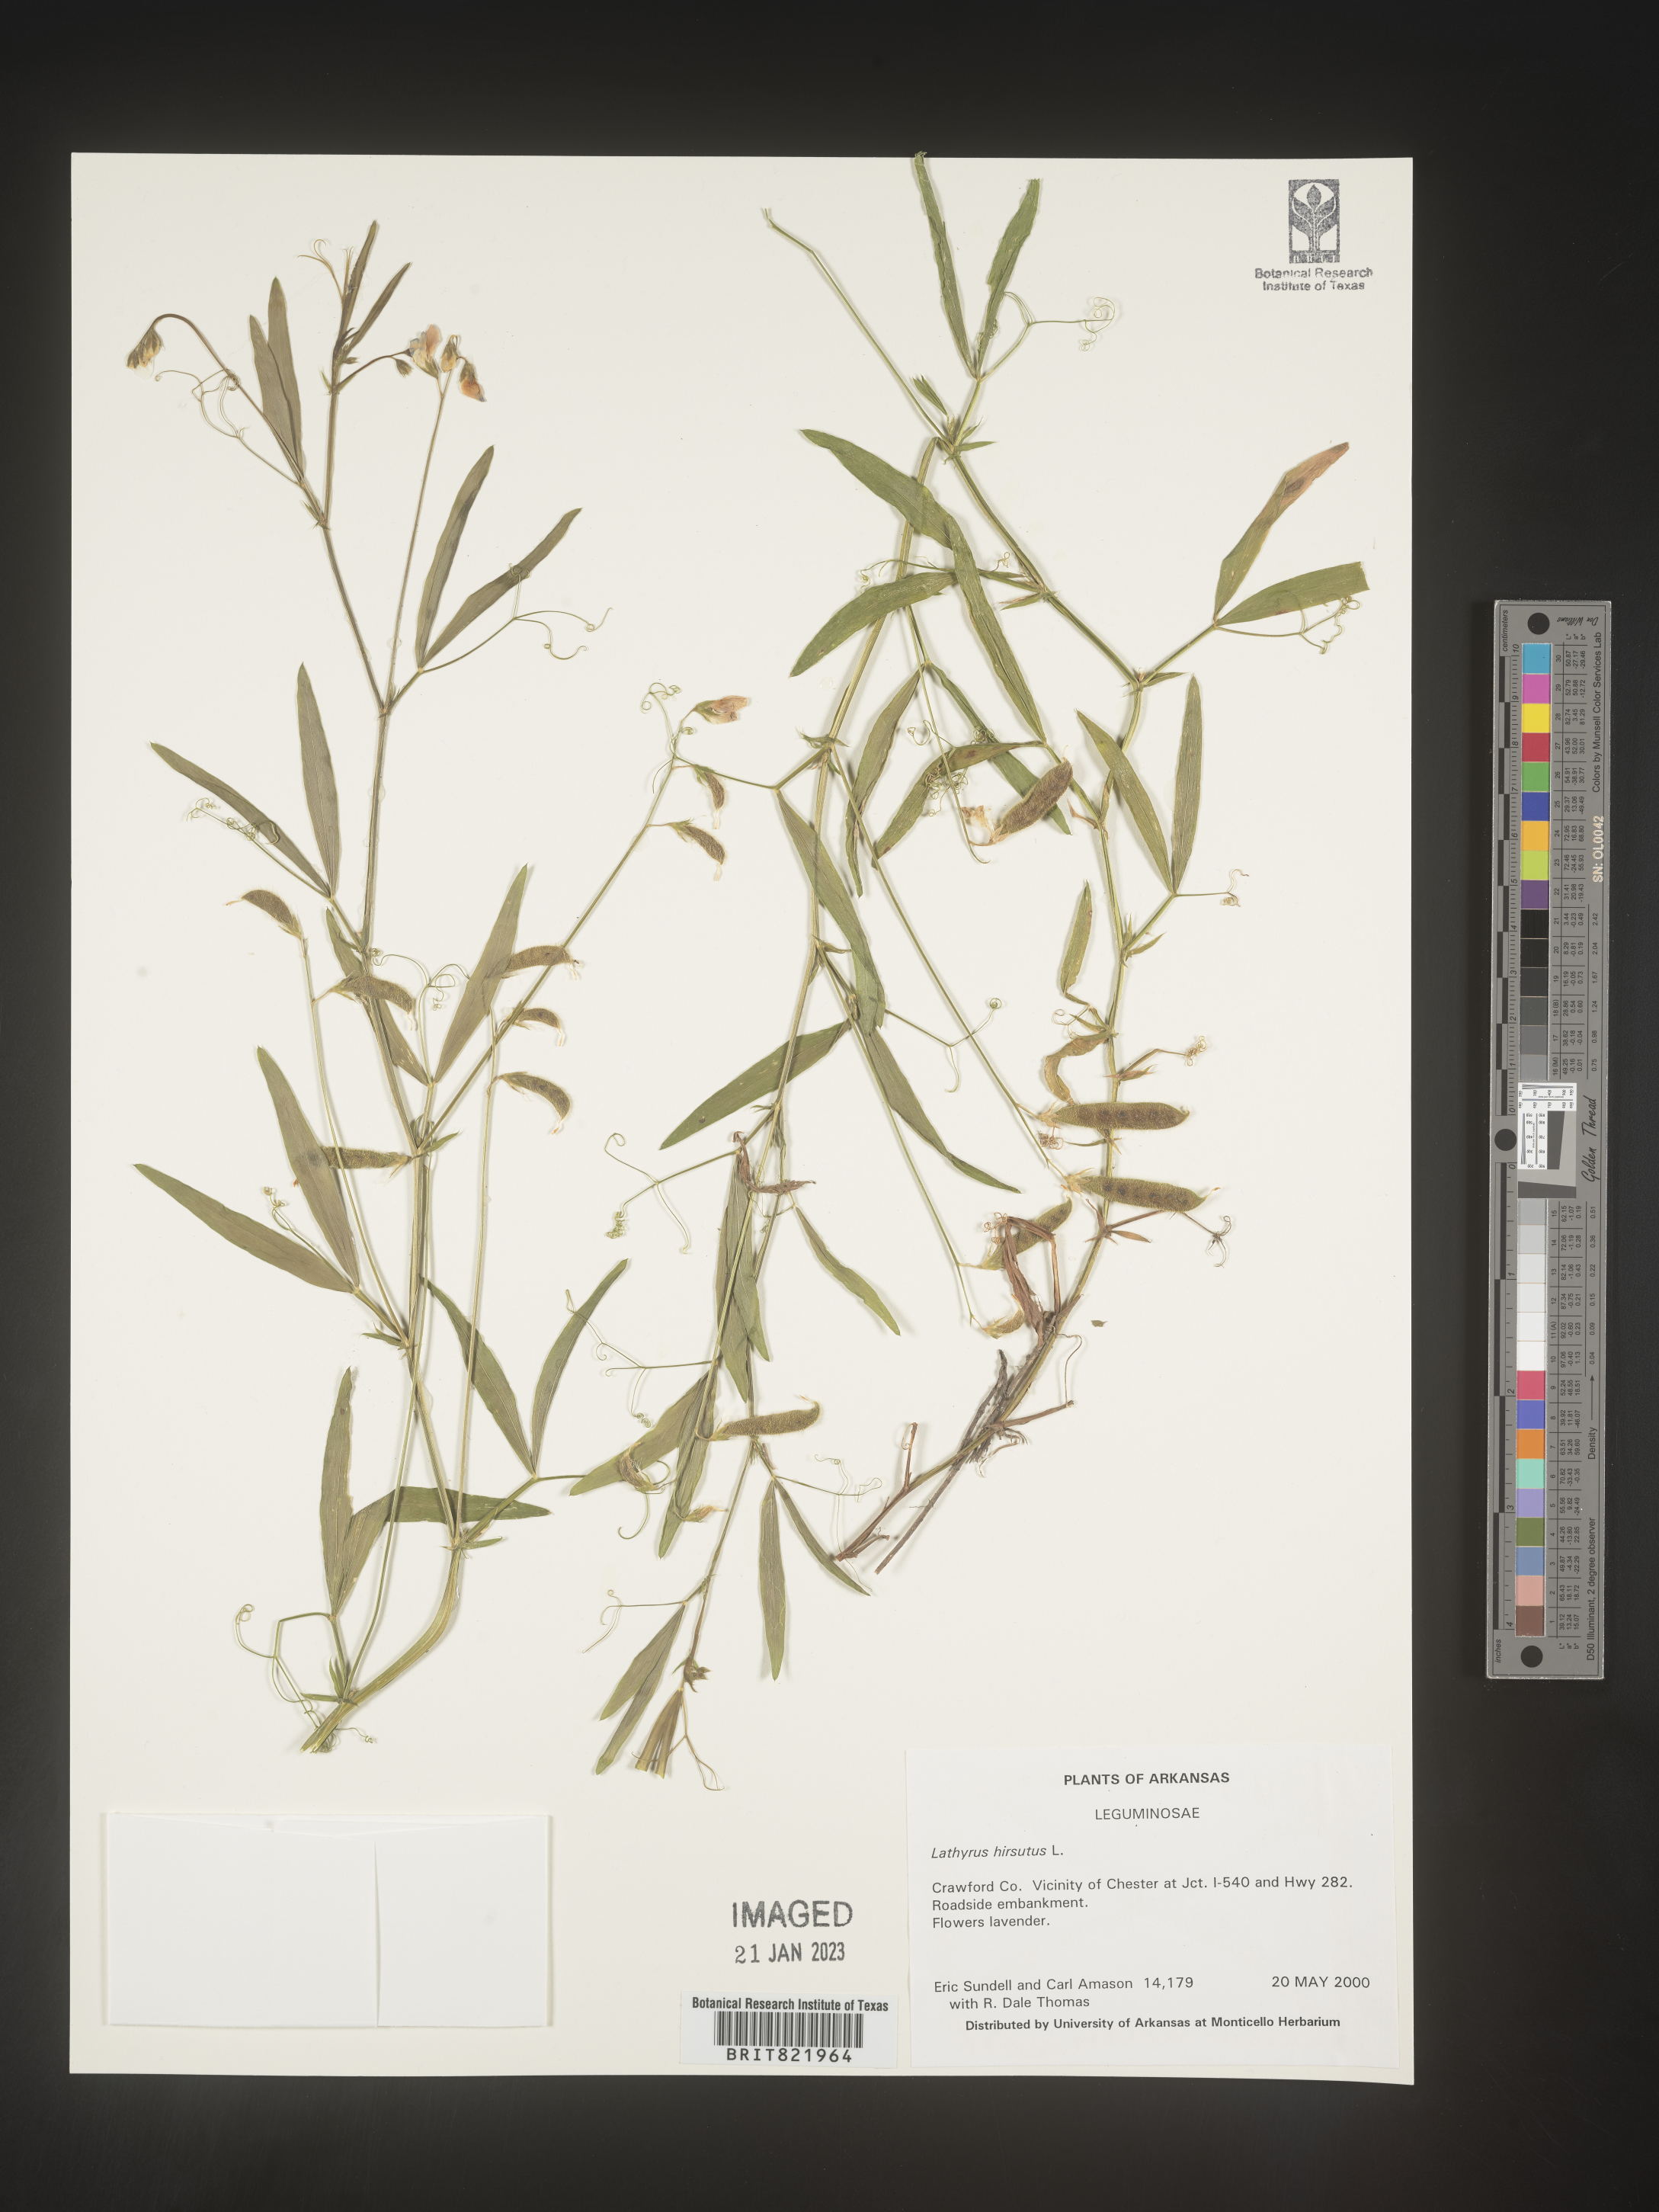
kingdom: Plantae
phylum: Tracheophyta
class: Magnoliopsida
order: Fabales
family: Fabaceae
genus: Lathyrus
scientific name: Lathyrus hirsutus
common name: Hairy vetchling
